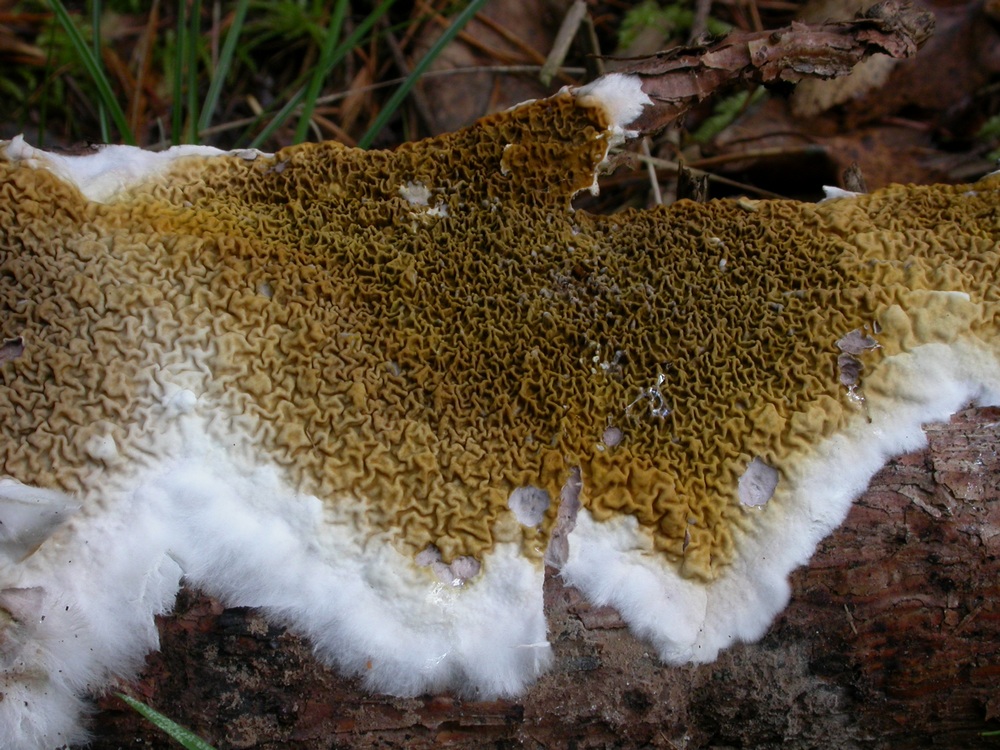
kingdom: Fungi
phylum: Basidiomycota
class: Agaricomycetes
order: Boletales
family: Serpulaceae
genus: Serpula
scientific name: Serpula himantioides
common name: tyndkødet hussvamp
